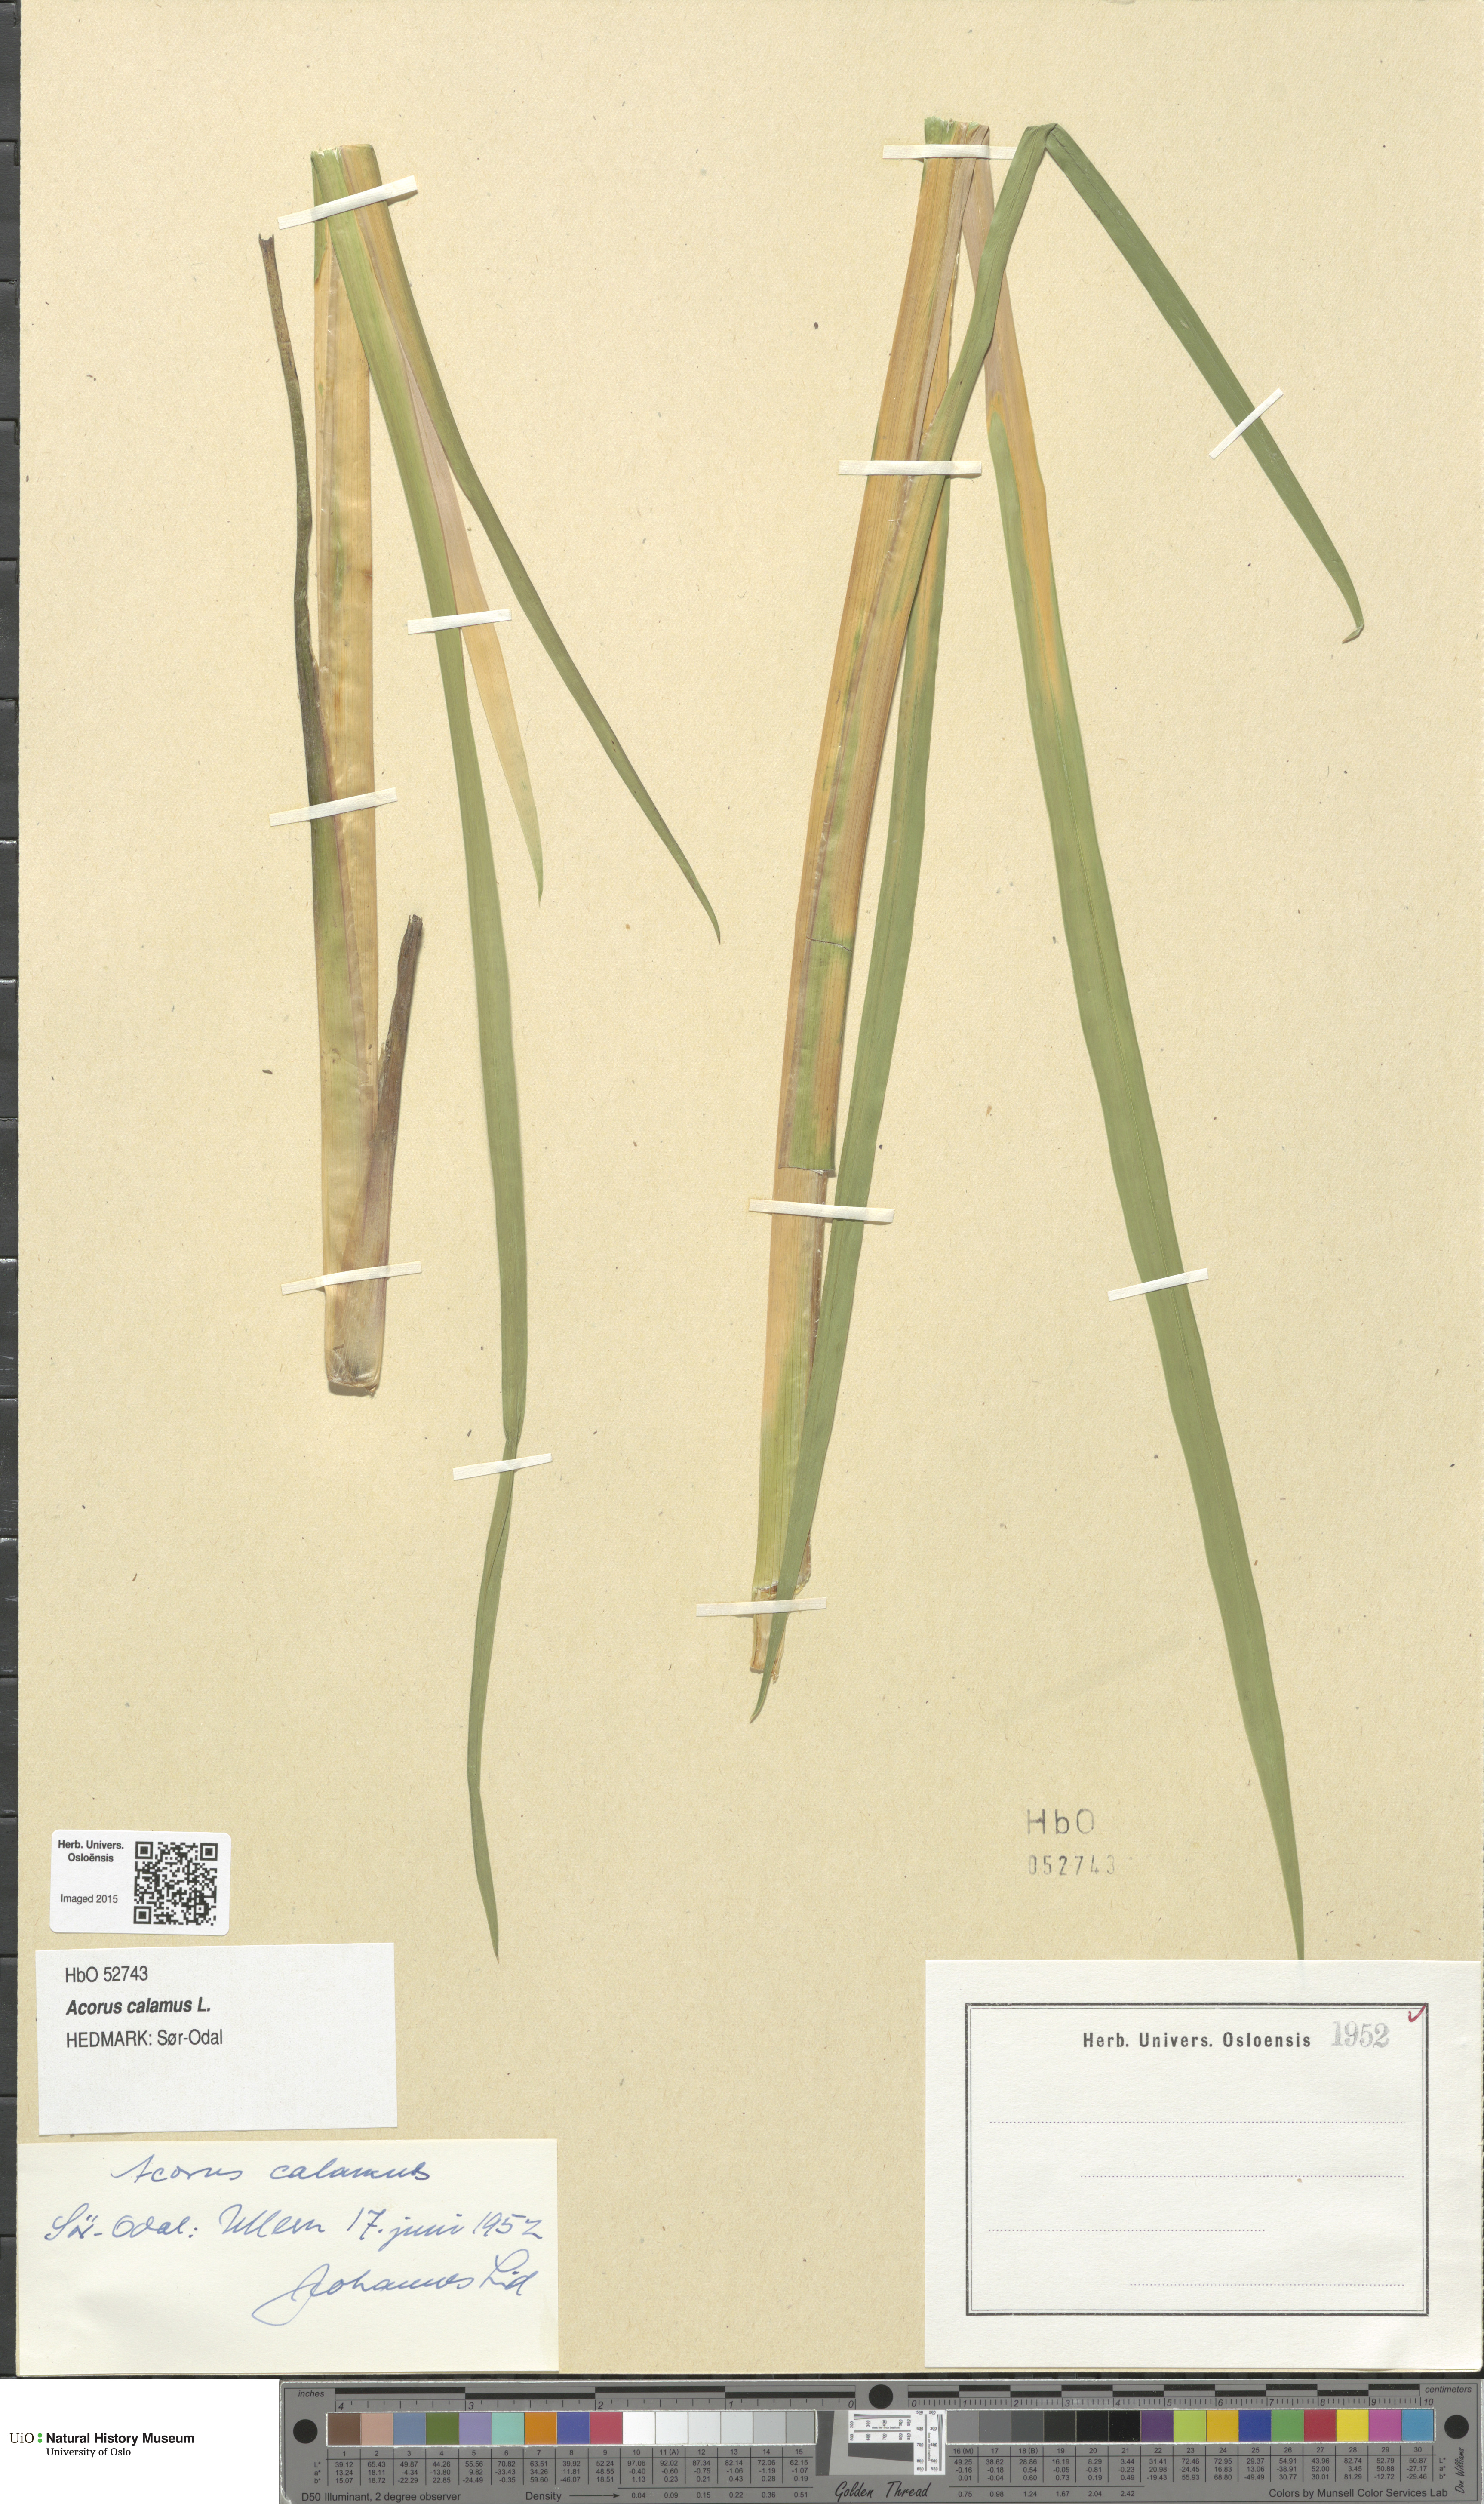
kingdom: Plantae
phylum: Tracheophyta
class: Liliopsida
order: Acorales
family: Acoraceae
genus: Acorus
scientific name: Acorus calamus
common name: Sweet-flag
